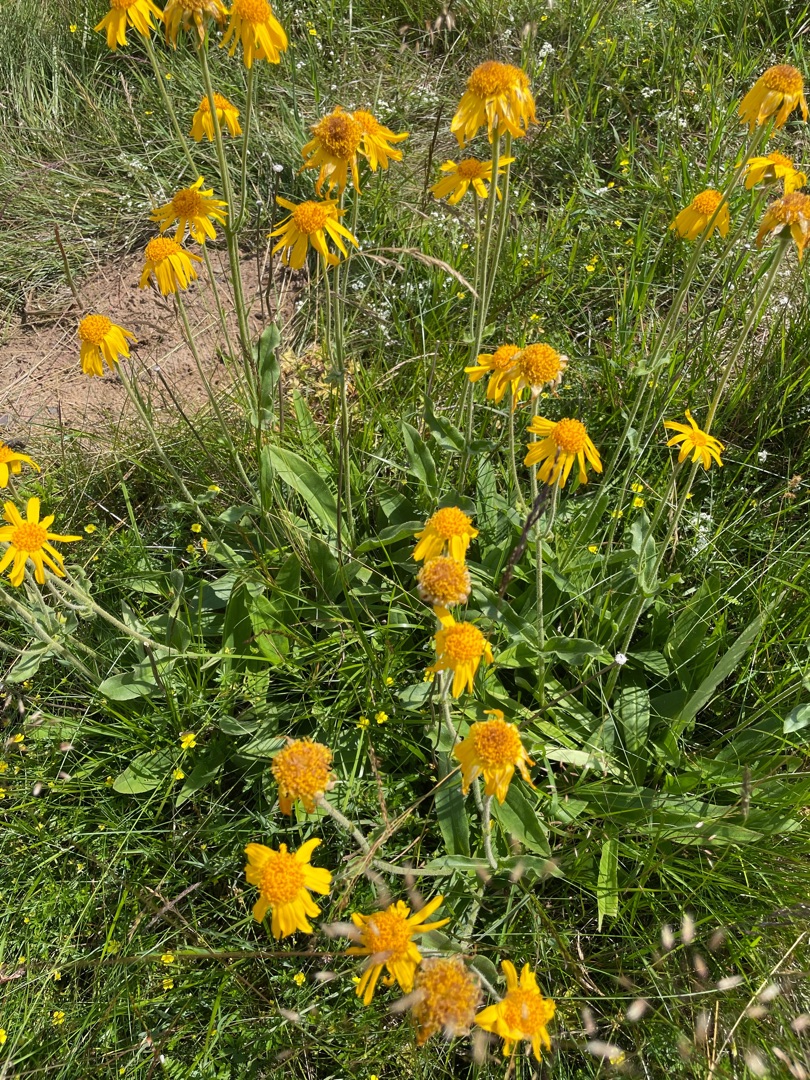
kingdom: Plantae
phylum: Tracheophyta
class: Magnoliopsida
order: Asterales
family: Asteraceae
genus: Arnica
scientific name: Arnica montana
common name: Guldblomme
